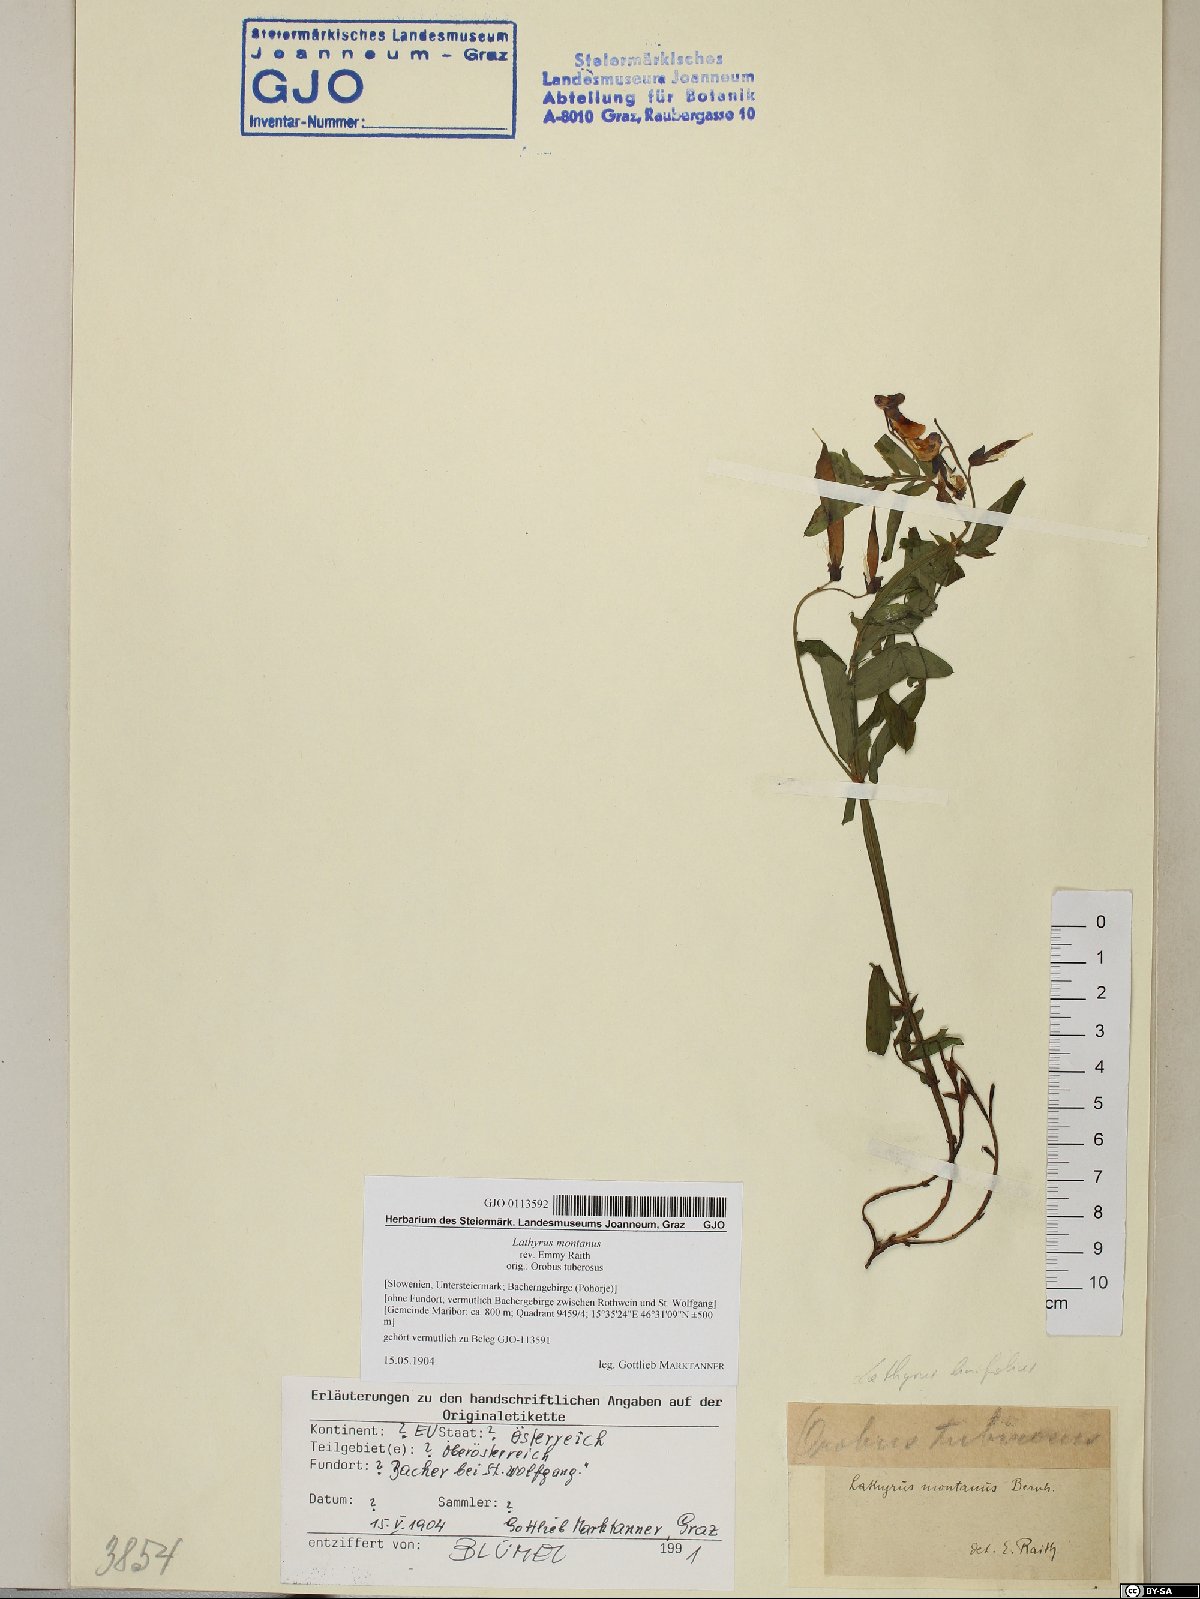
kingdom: Plantae
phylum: Tracheophyta
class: Magnoliopsida
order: Fabales
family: Fabaceae
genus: Lathyrus
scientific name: Lathyrus linifolius
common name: Bitter-vetch
